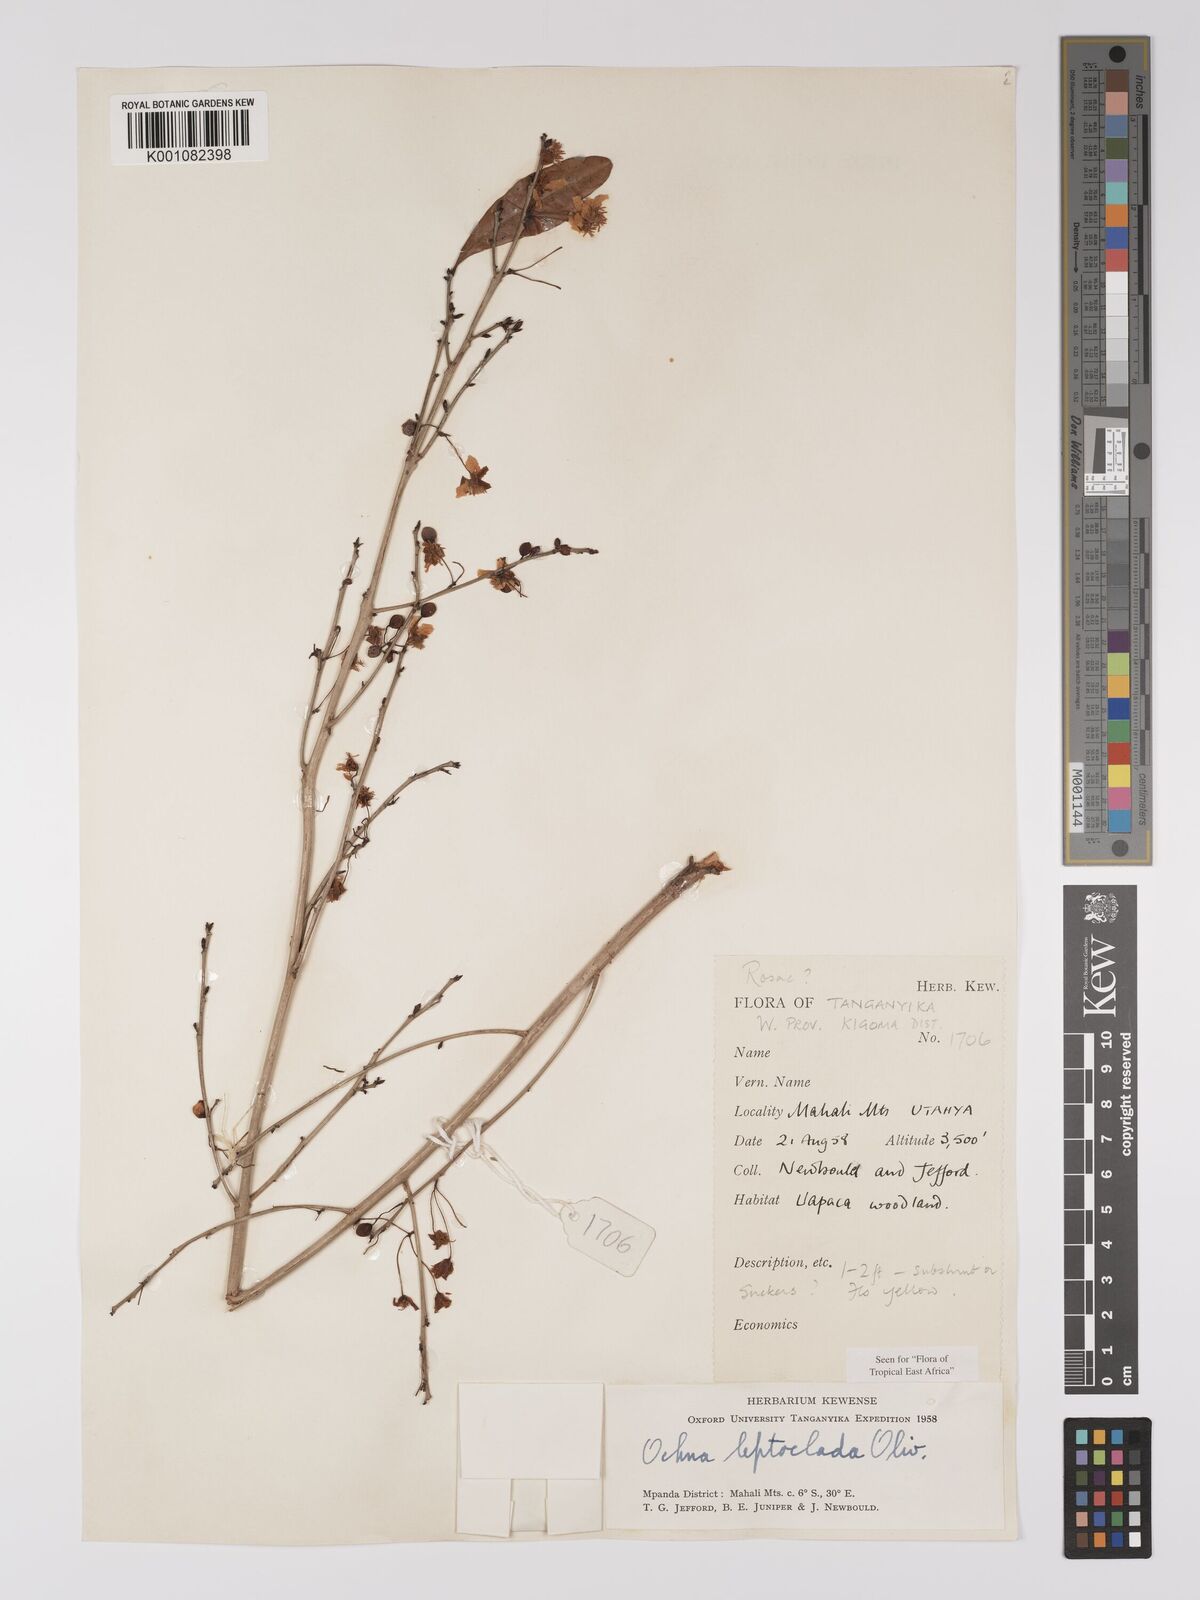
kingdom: Plantae
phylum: Tracheophyta
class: Magnoliopsida
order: Malpighiales
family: Ochnaceae
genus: Ochna
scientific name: Ochna leptoclada
